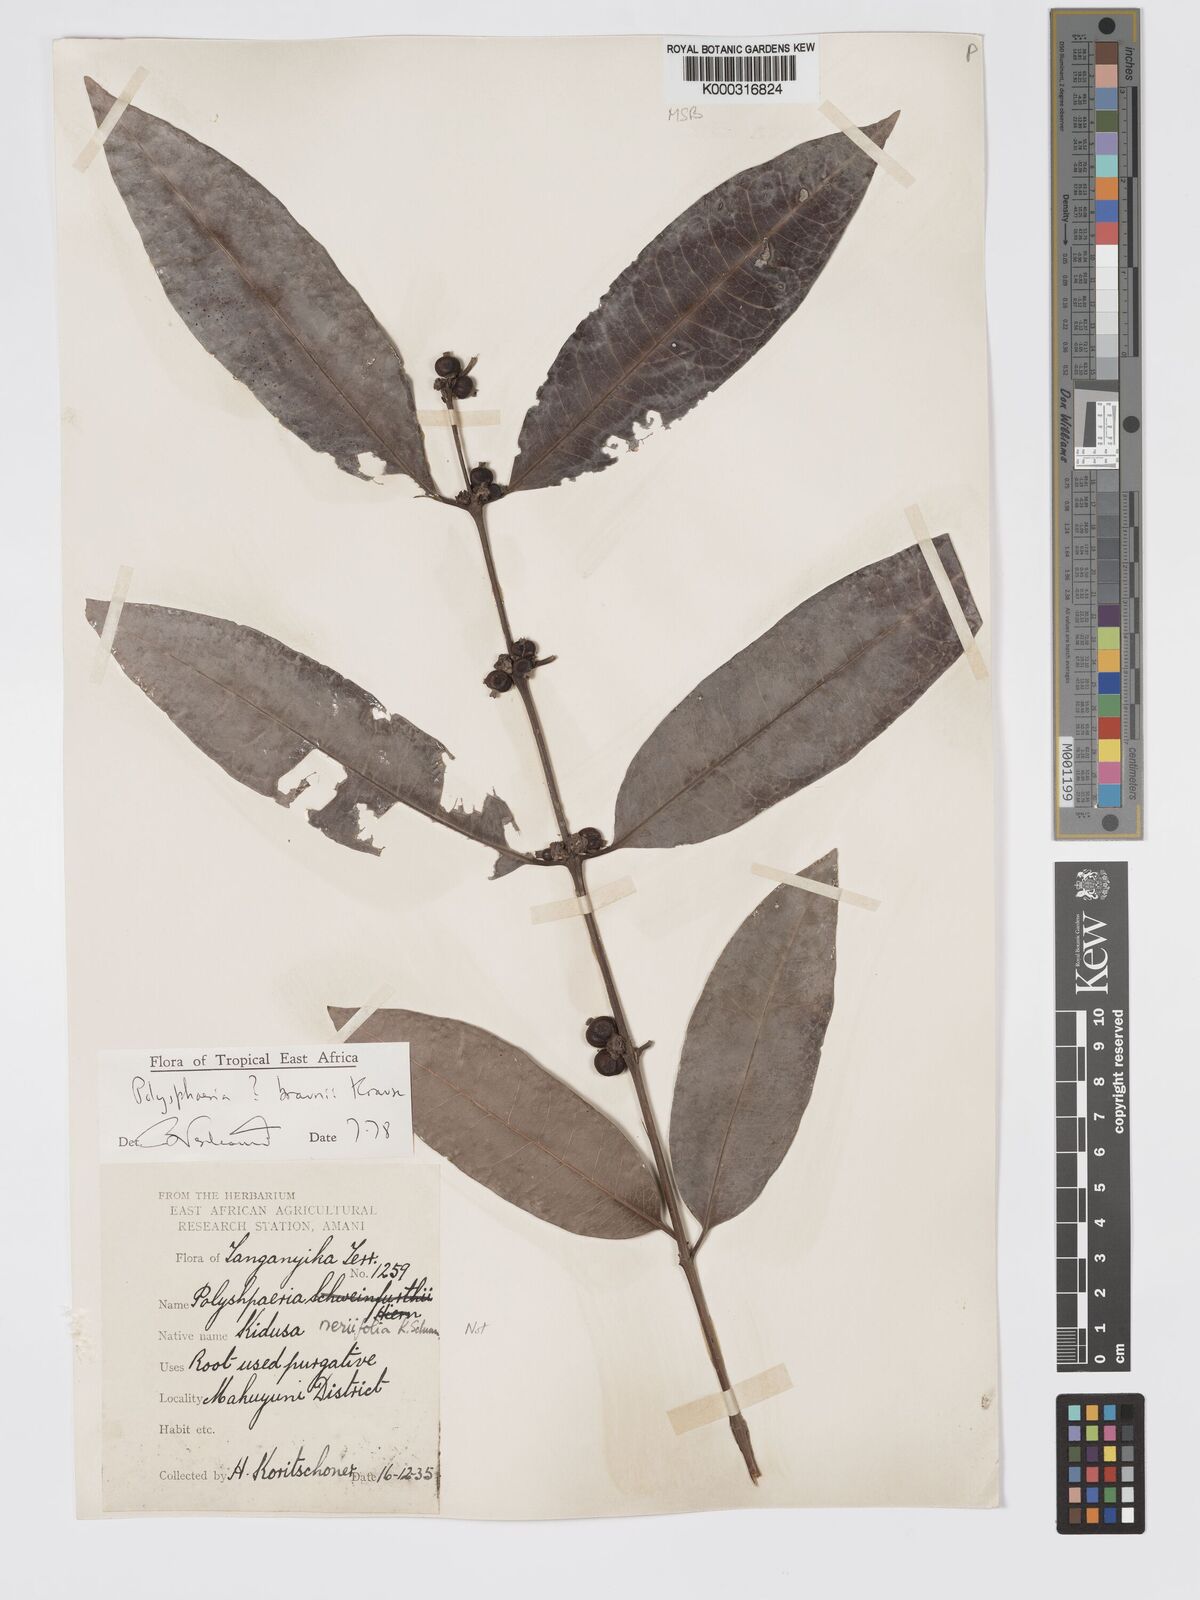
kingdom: Plantae
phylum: Tracheophyta
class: Magnoliopsida
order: Gentianales
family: Rubiaceae
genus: Polysphaeria
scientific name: Polysphaeria braunii
